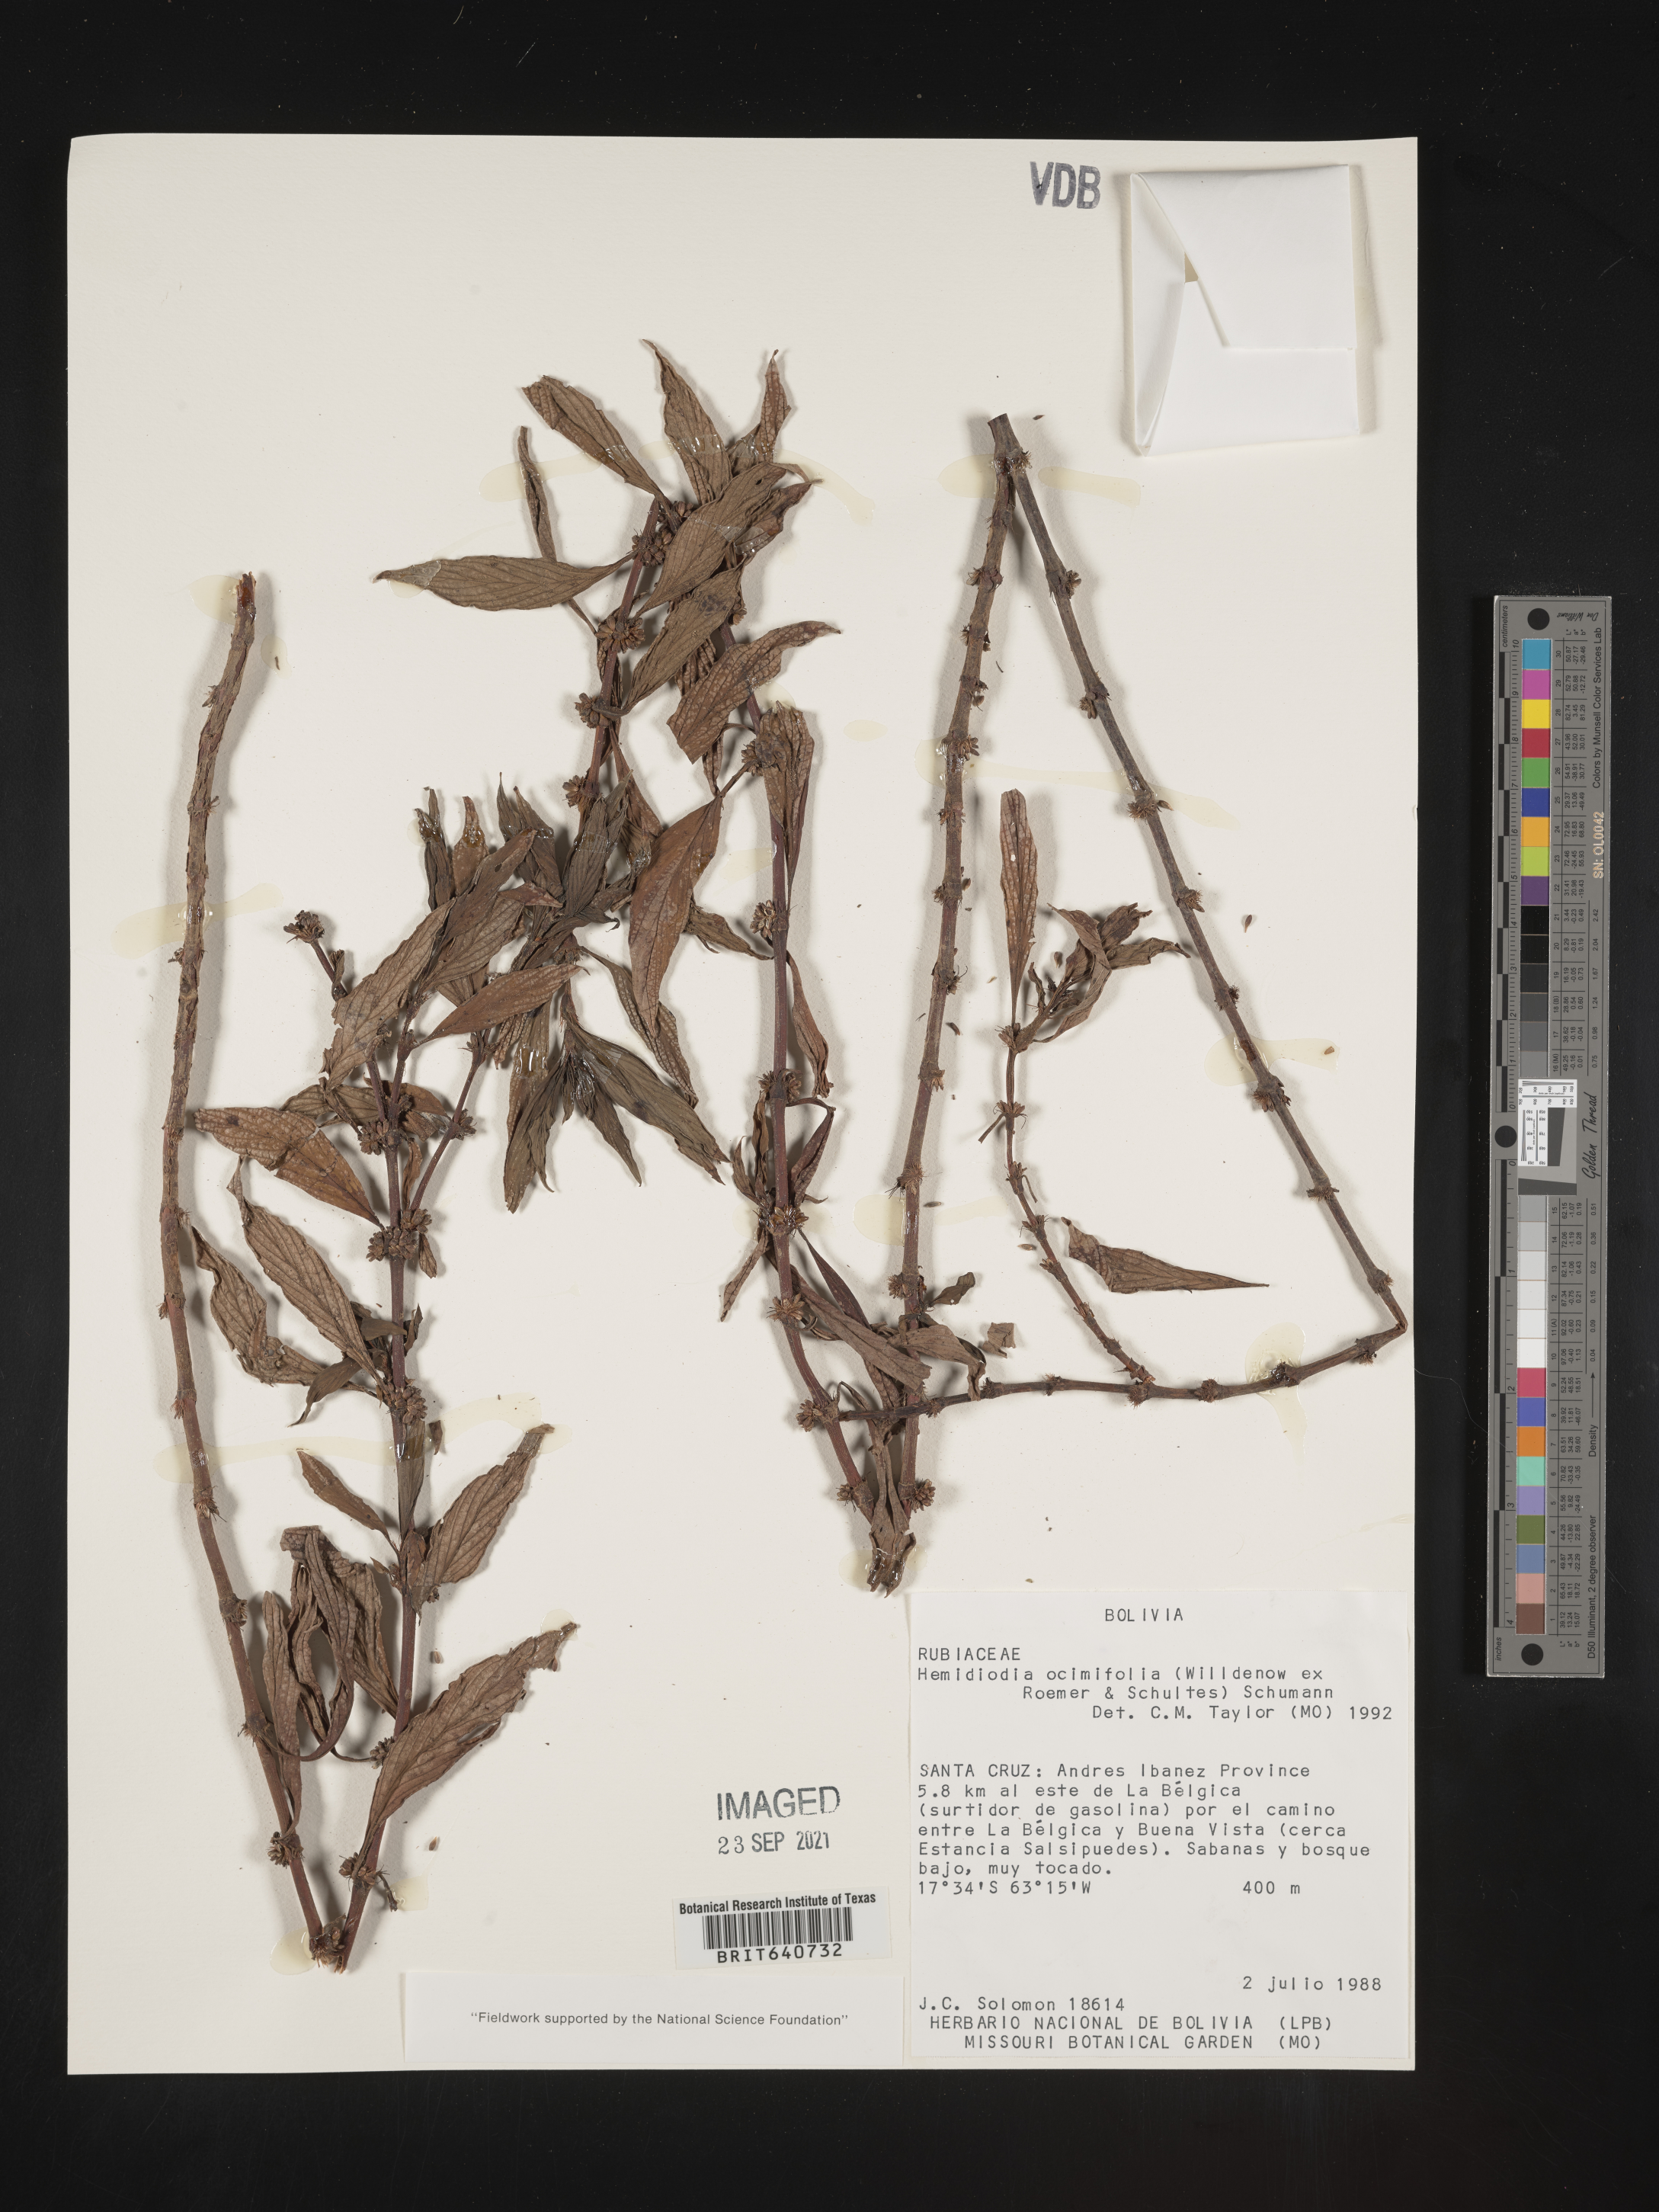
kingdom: Plantae
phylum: Tracheophyta
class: Magnoliopsida
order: Gentianales
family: Rubiaceae
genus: Spermacoce
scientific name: Spermacoce
